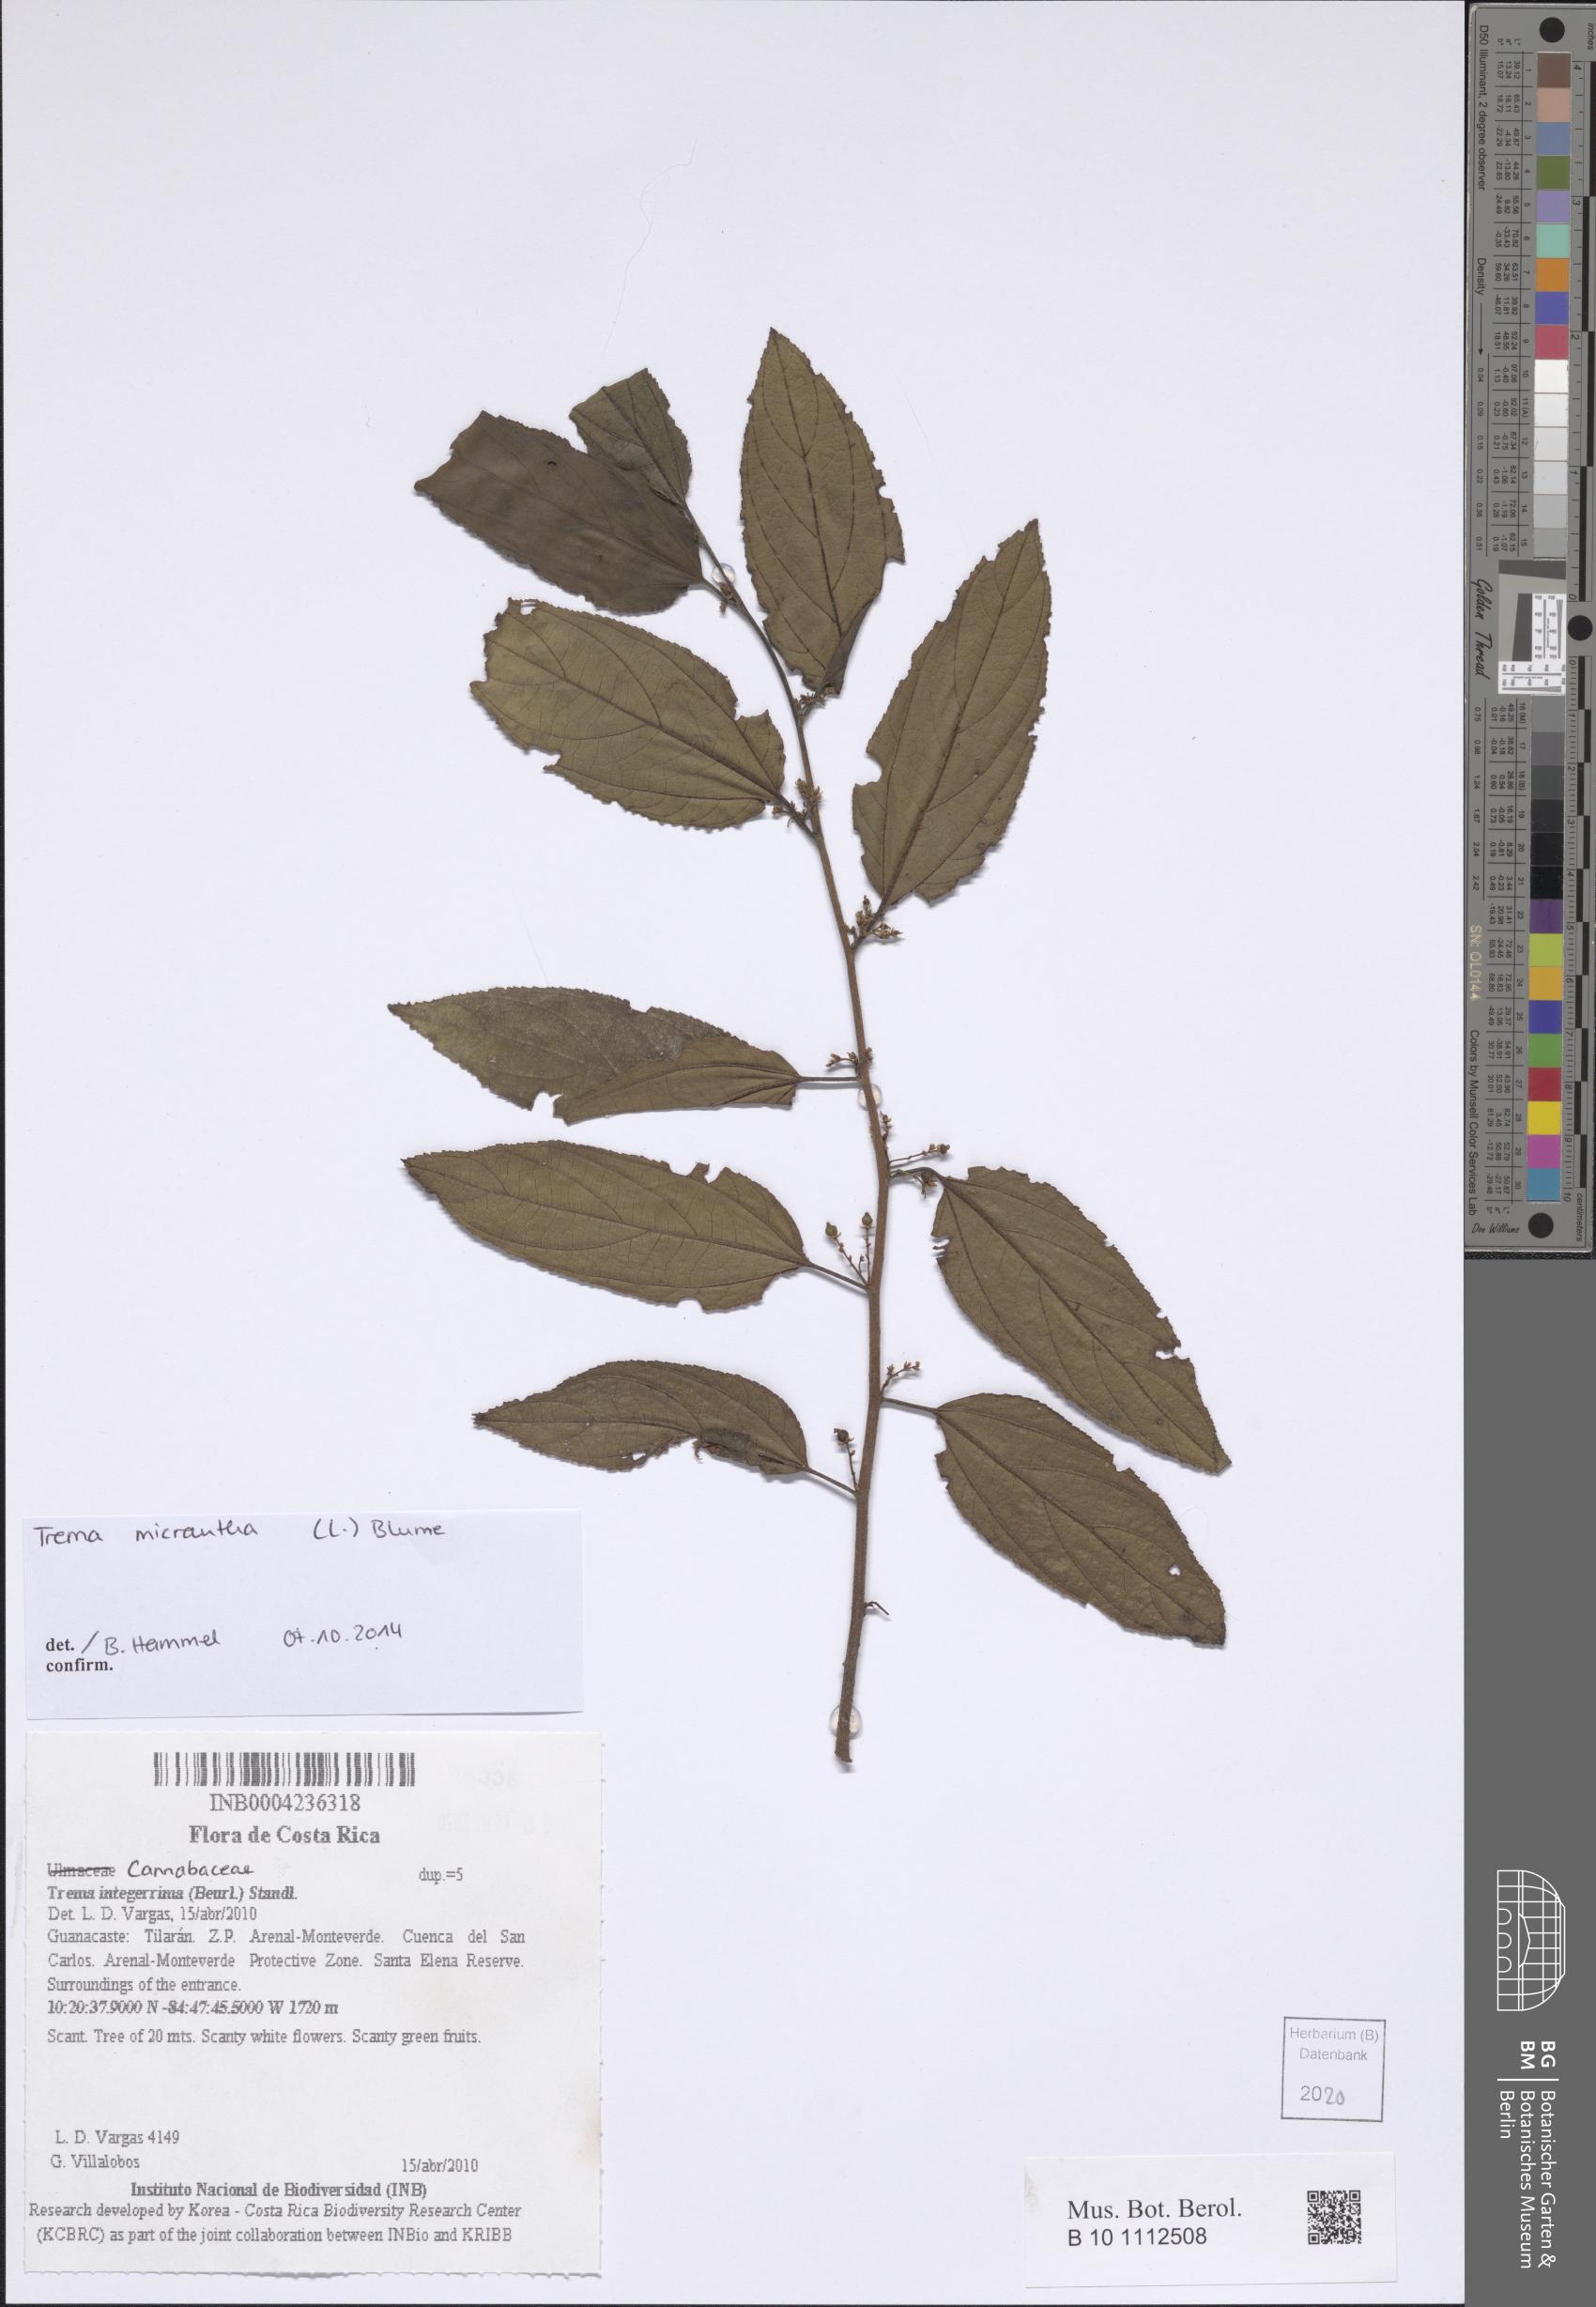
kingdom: Plantae
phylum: Tracheophyta
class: Magnoliopsida
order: Rosales
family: Cannabaceae
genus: Trema
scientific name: Trema micranthum
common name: Jamaican nettletree
